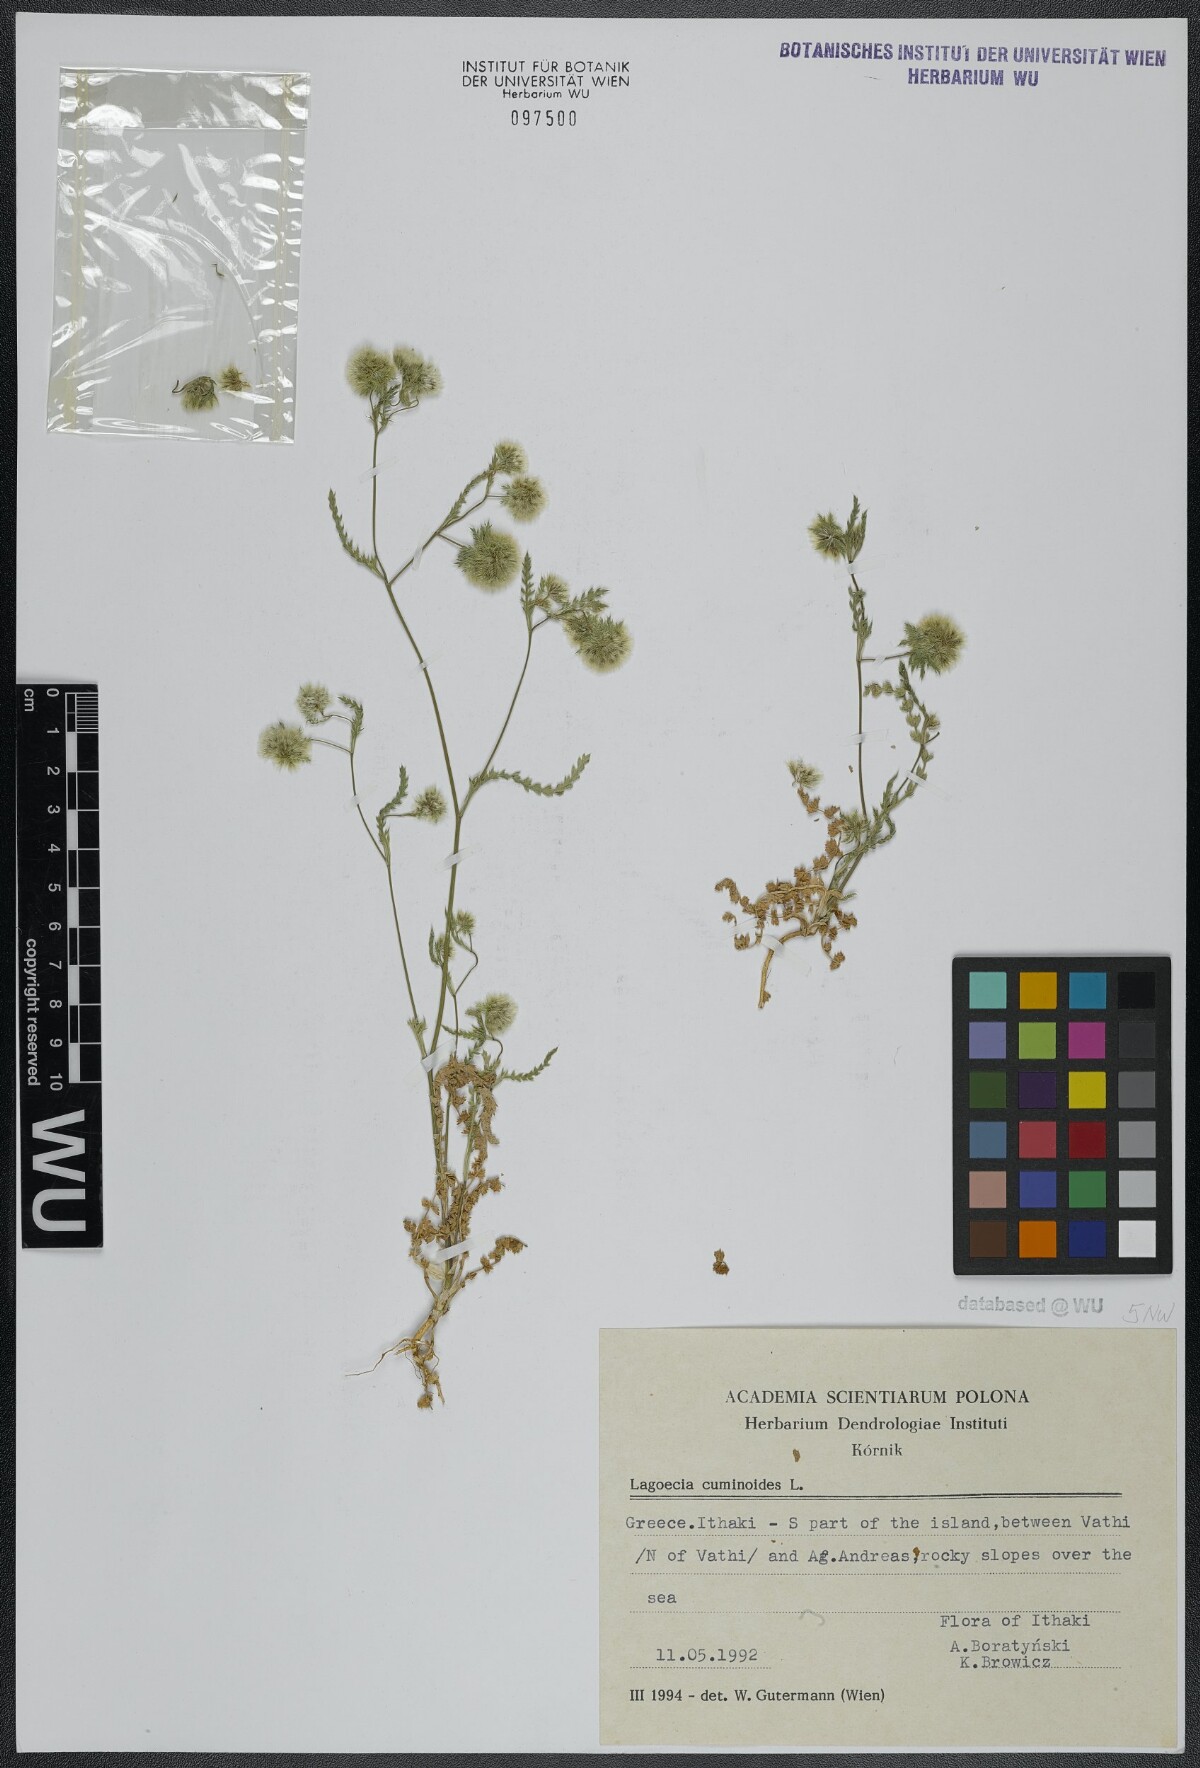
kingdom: Plantae
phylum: Tracheophyta
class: Magnoliopsida
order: Apiales
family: Apiaceae
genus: Lagoecia
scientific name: Lagoecia cuminoides
